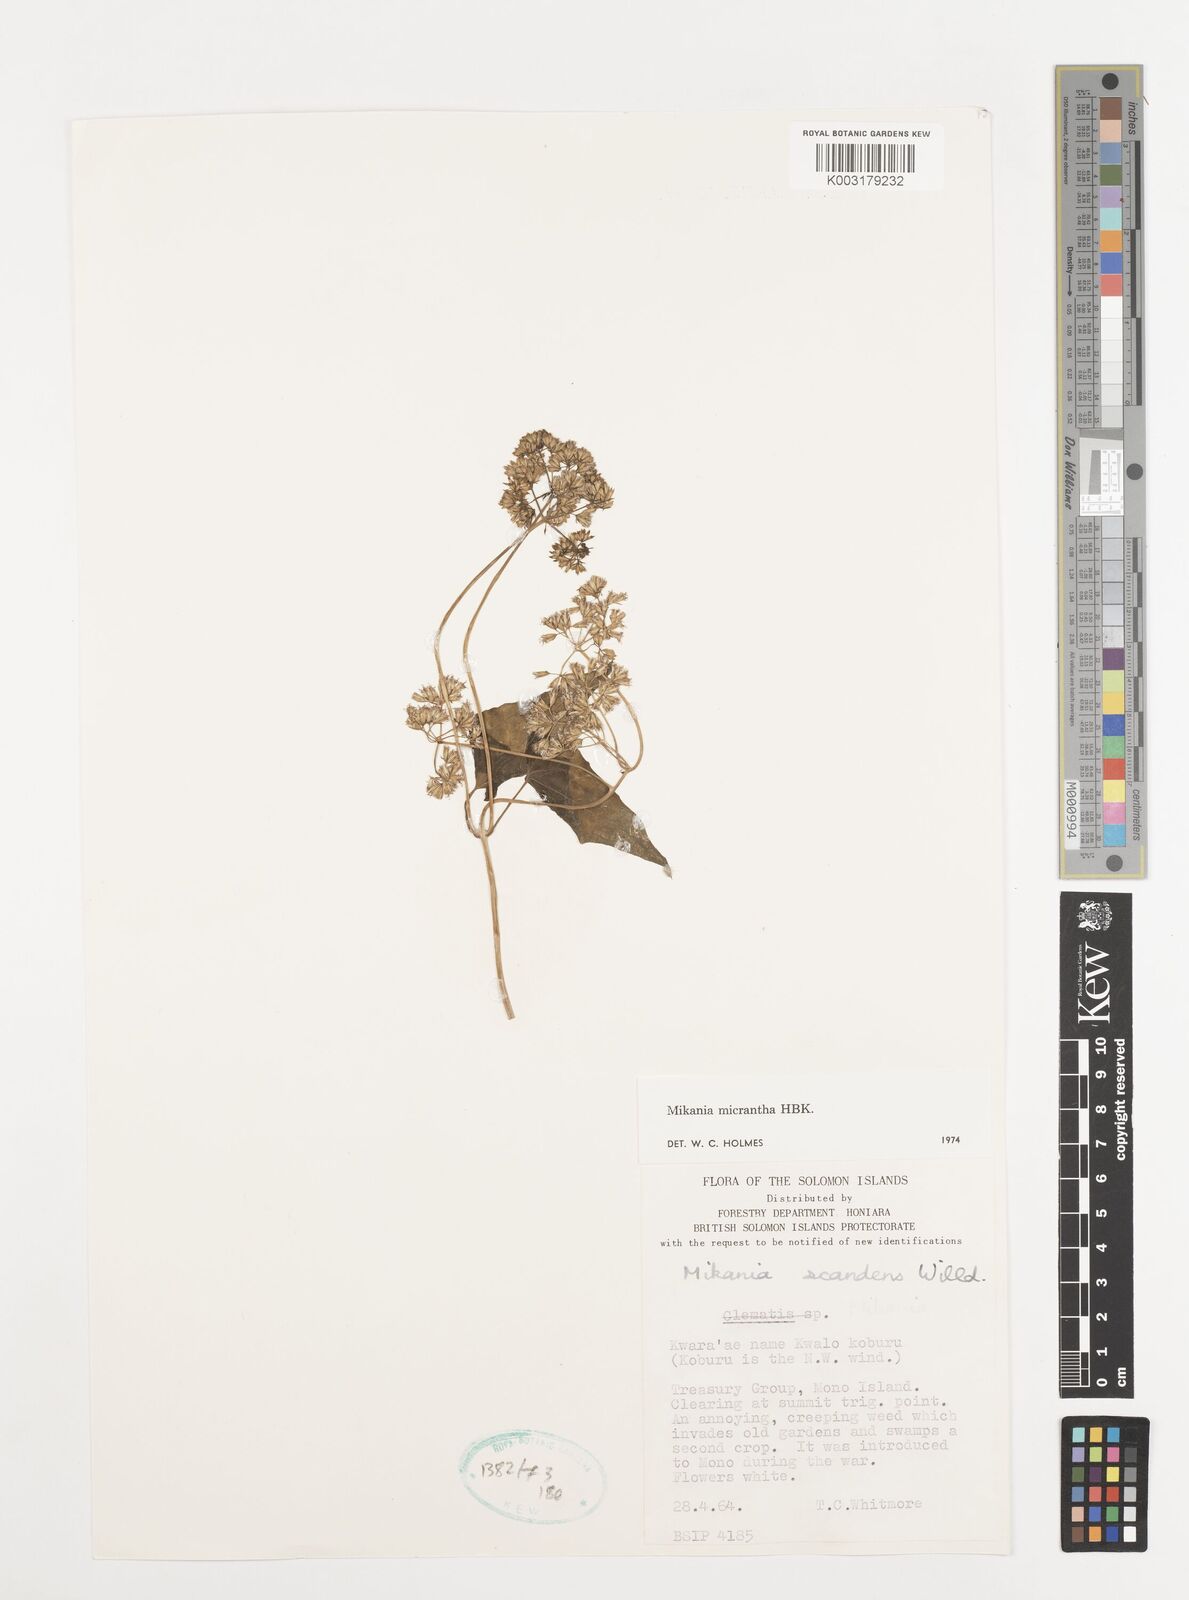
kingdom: Plantae
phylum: Tracheophyta
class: Magnoliopsida
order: Asterales
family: Asteraceae
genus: Mikania
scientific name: Mikania micrantha
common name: Mile-a-minute
